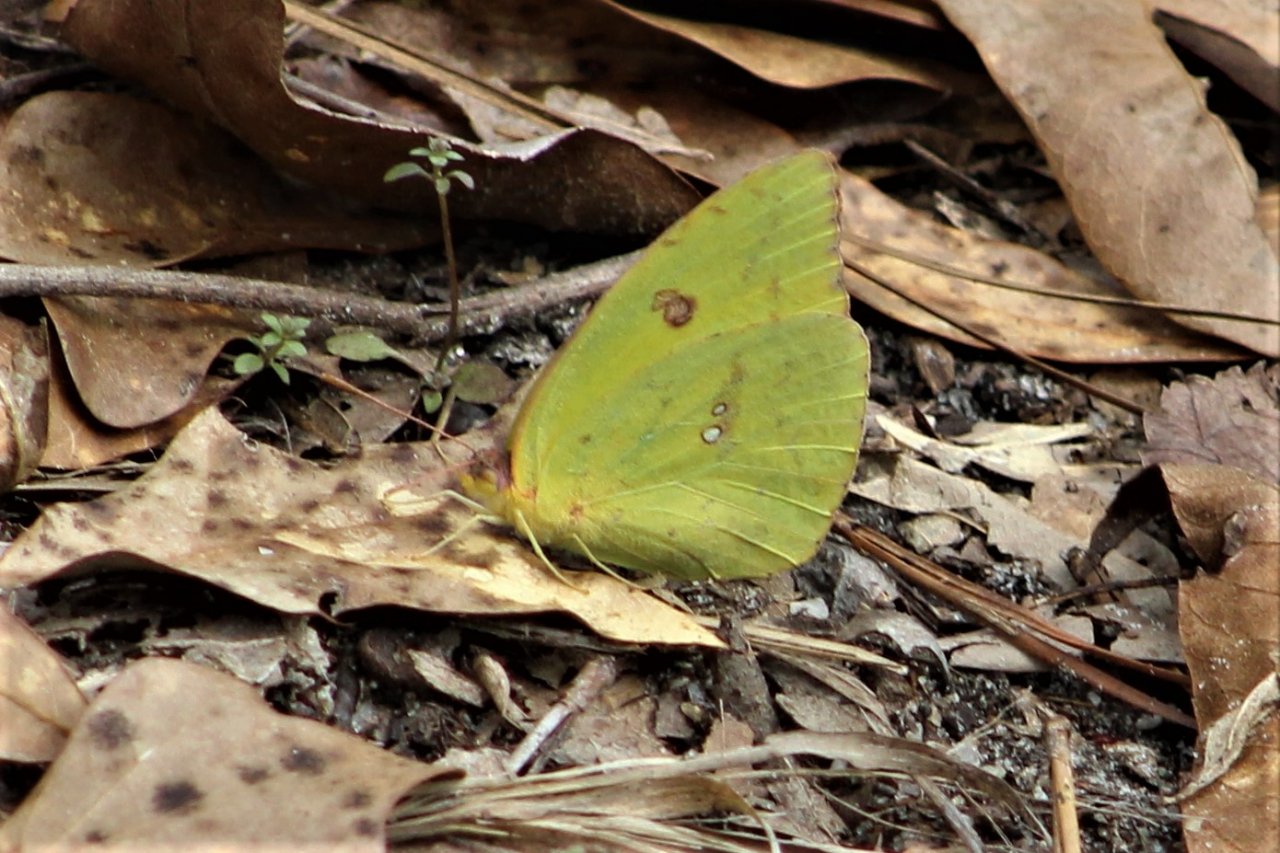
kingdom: Animalia
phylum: Arthropoda
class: Insecta
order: Lepidoptera
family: Pieridae
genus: Phoebis
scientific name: Phoebis sennae
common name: Cloudless Sulphur
